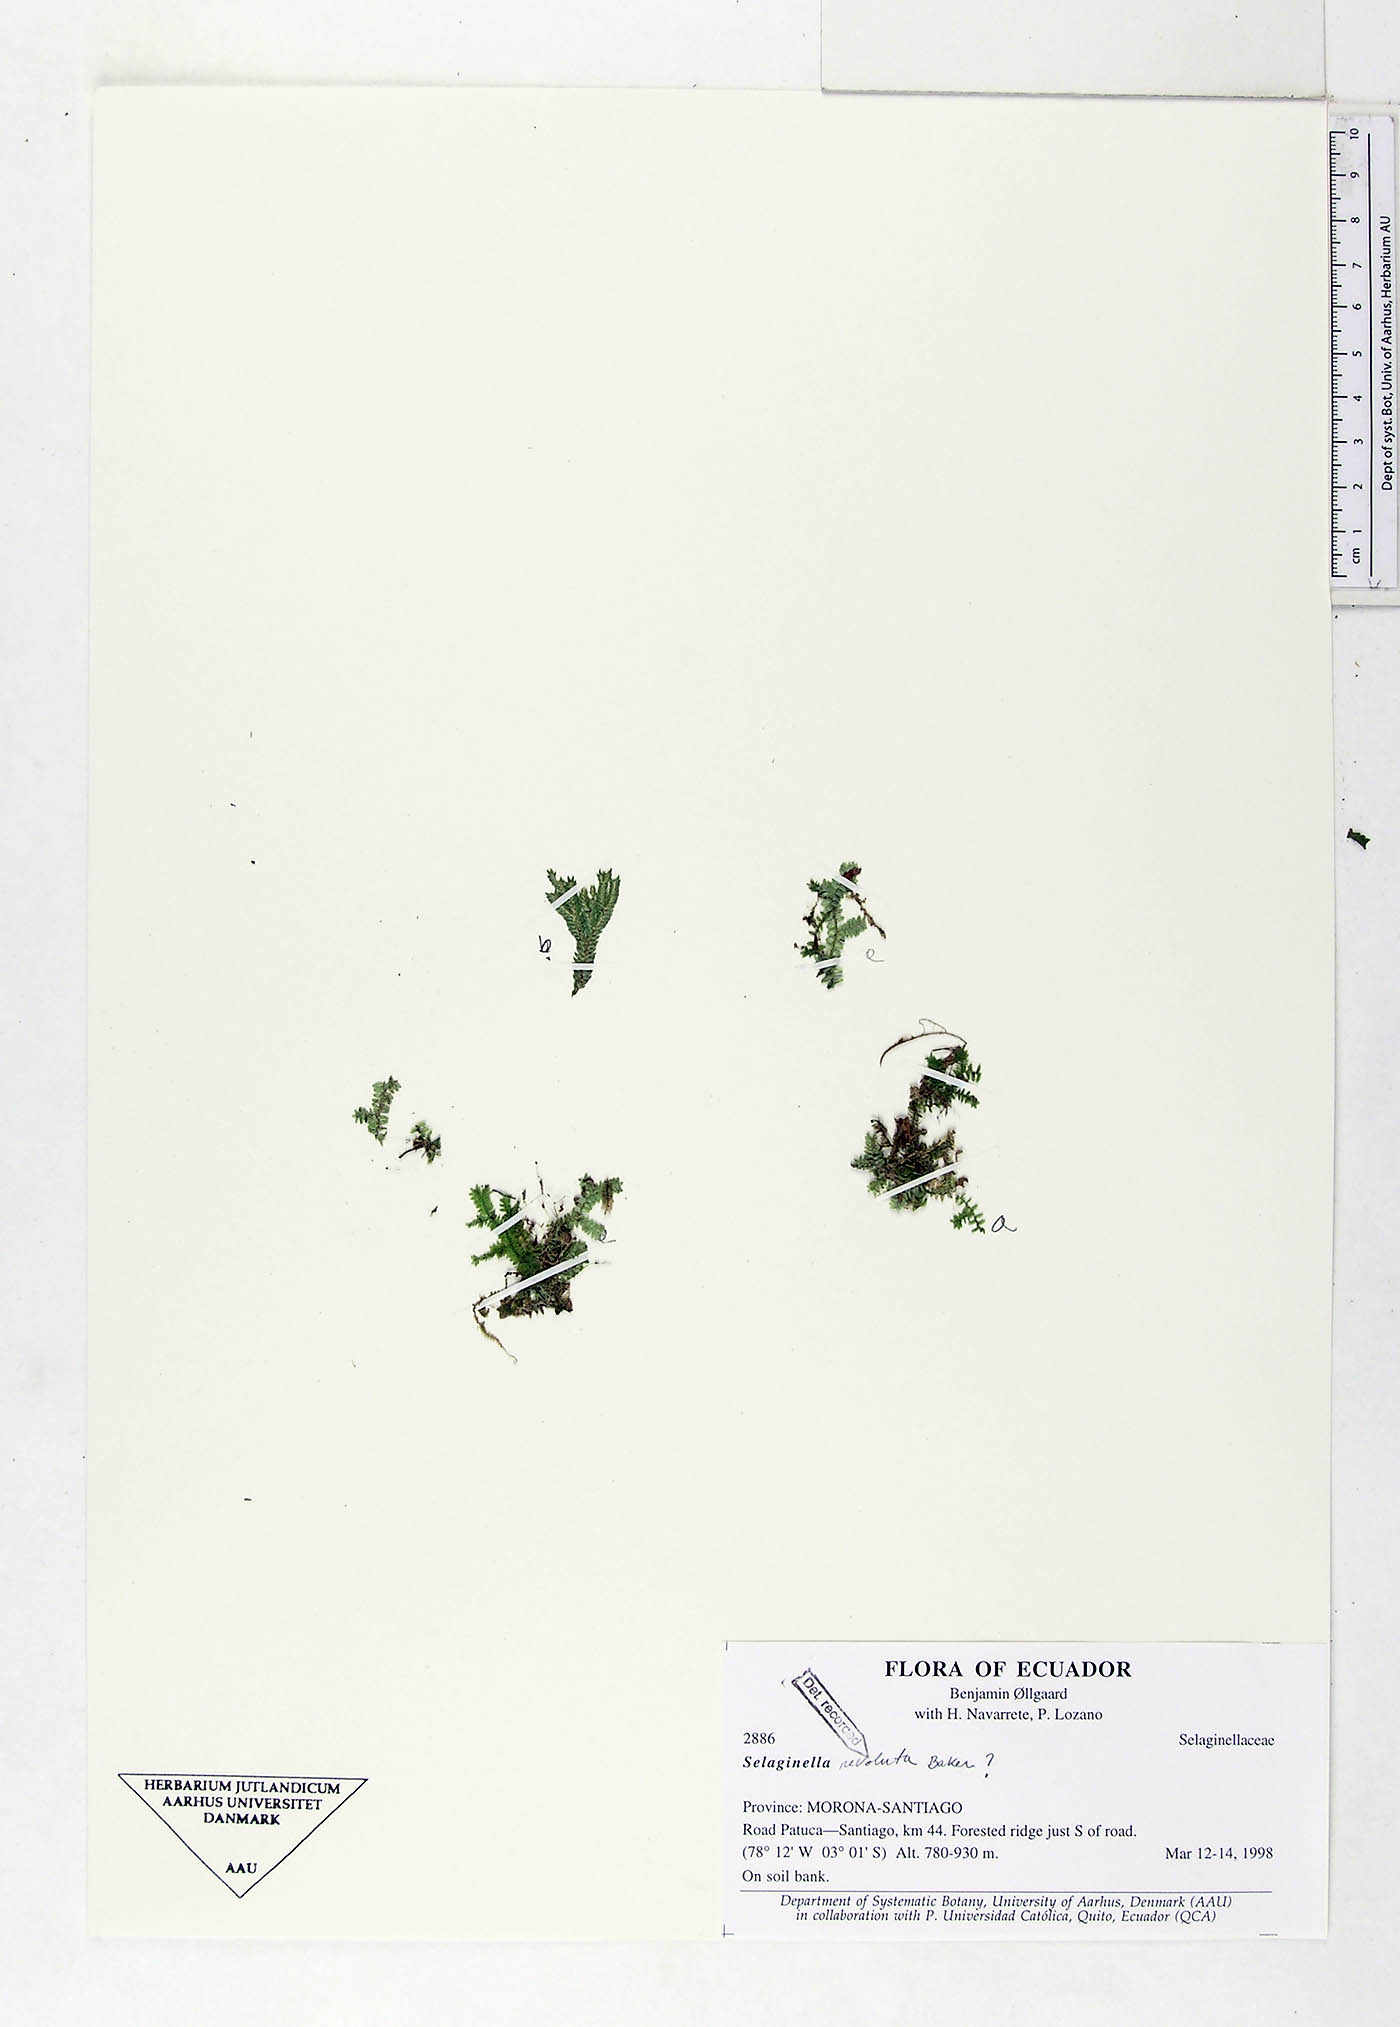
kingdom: Plantae
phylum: Tracheophyta
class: Lycopodiopsida
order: Selaginellales
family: Selaginellaceae
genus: Selaginella
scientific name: Selaginella revoluta
